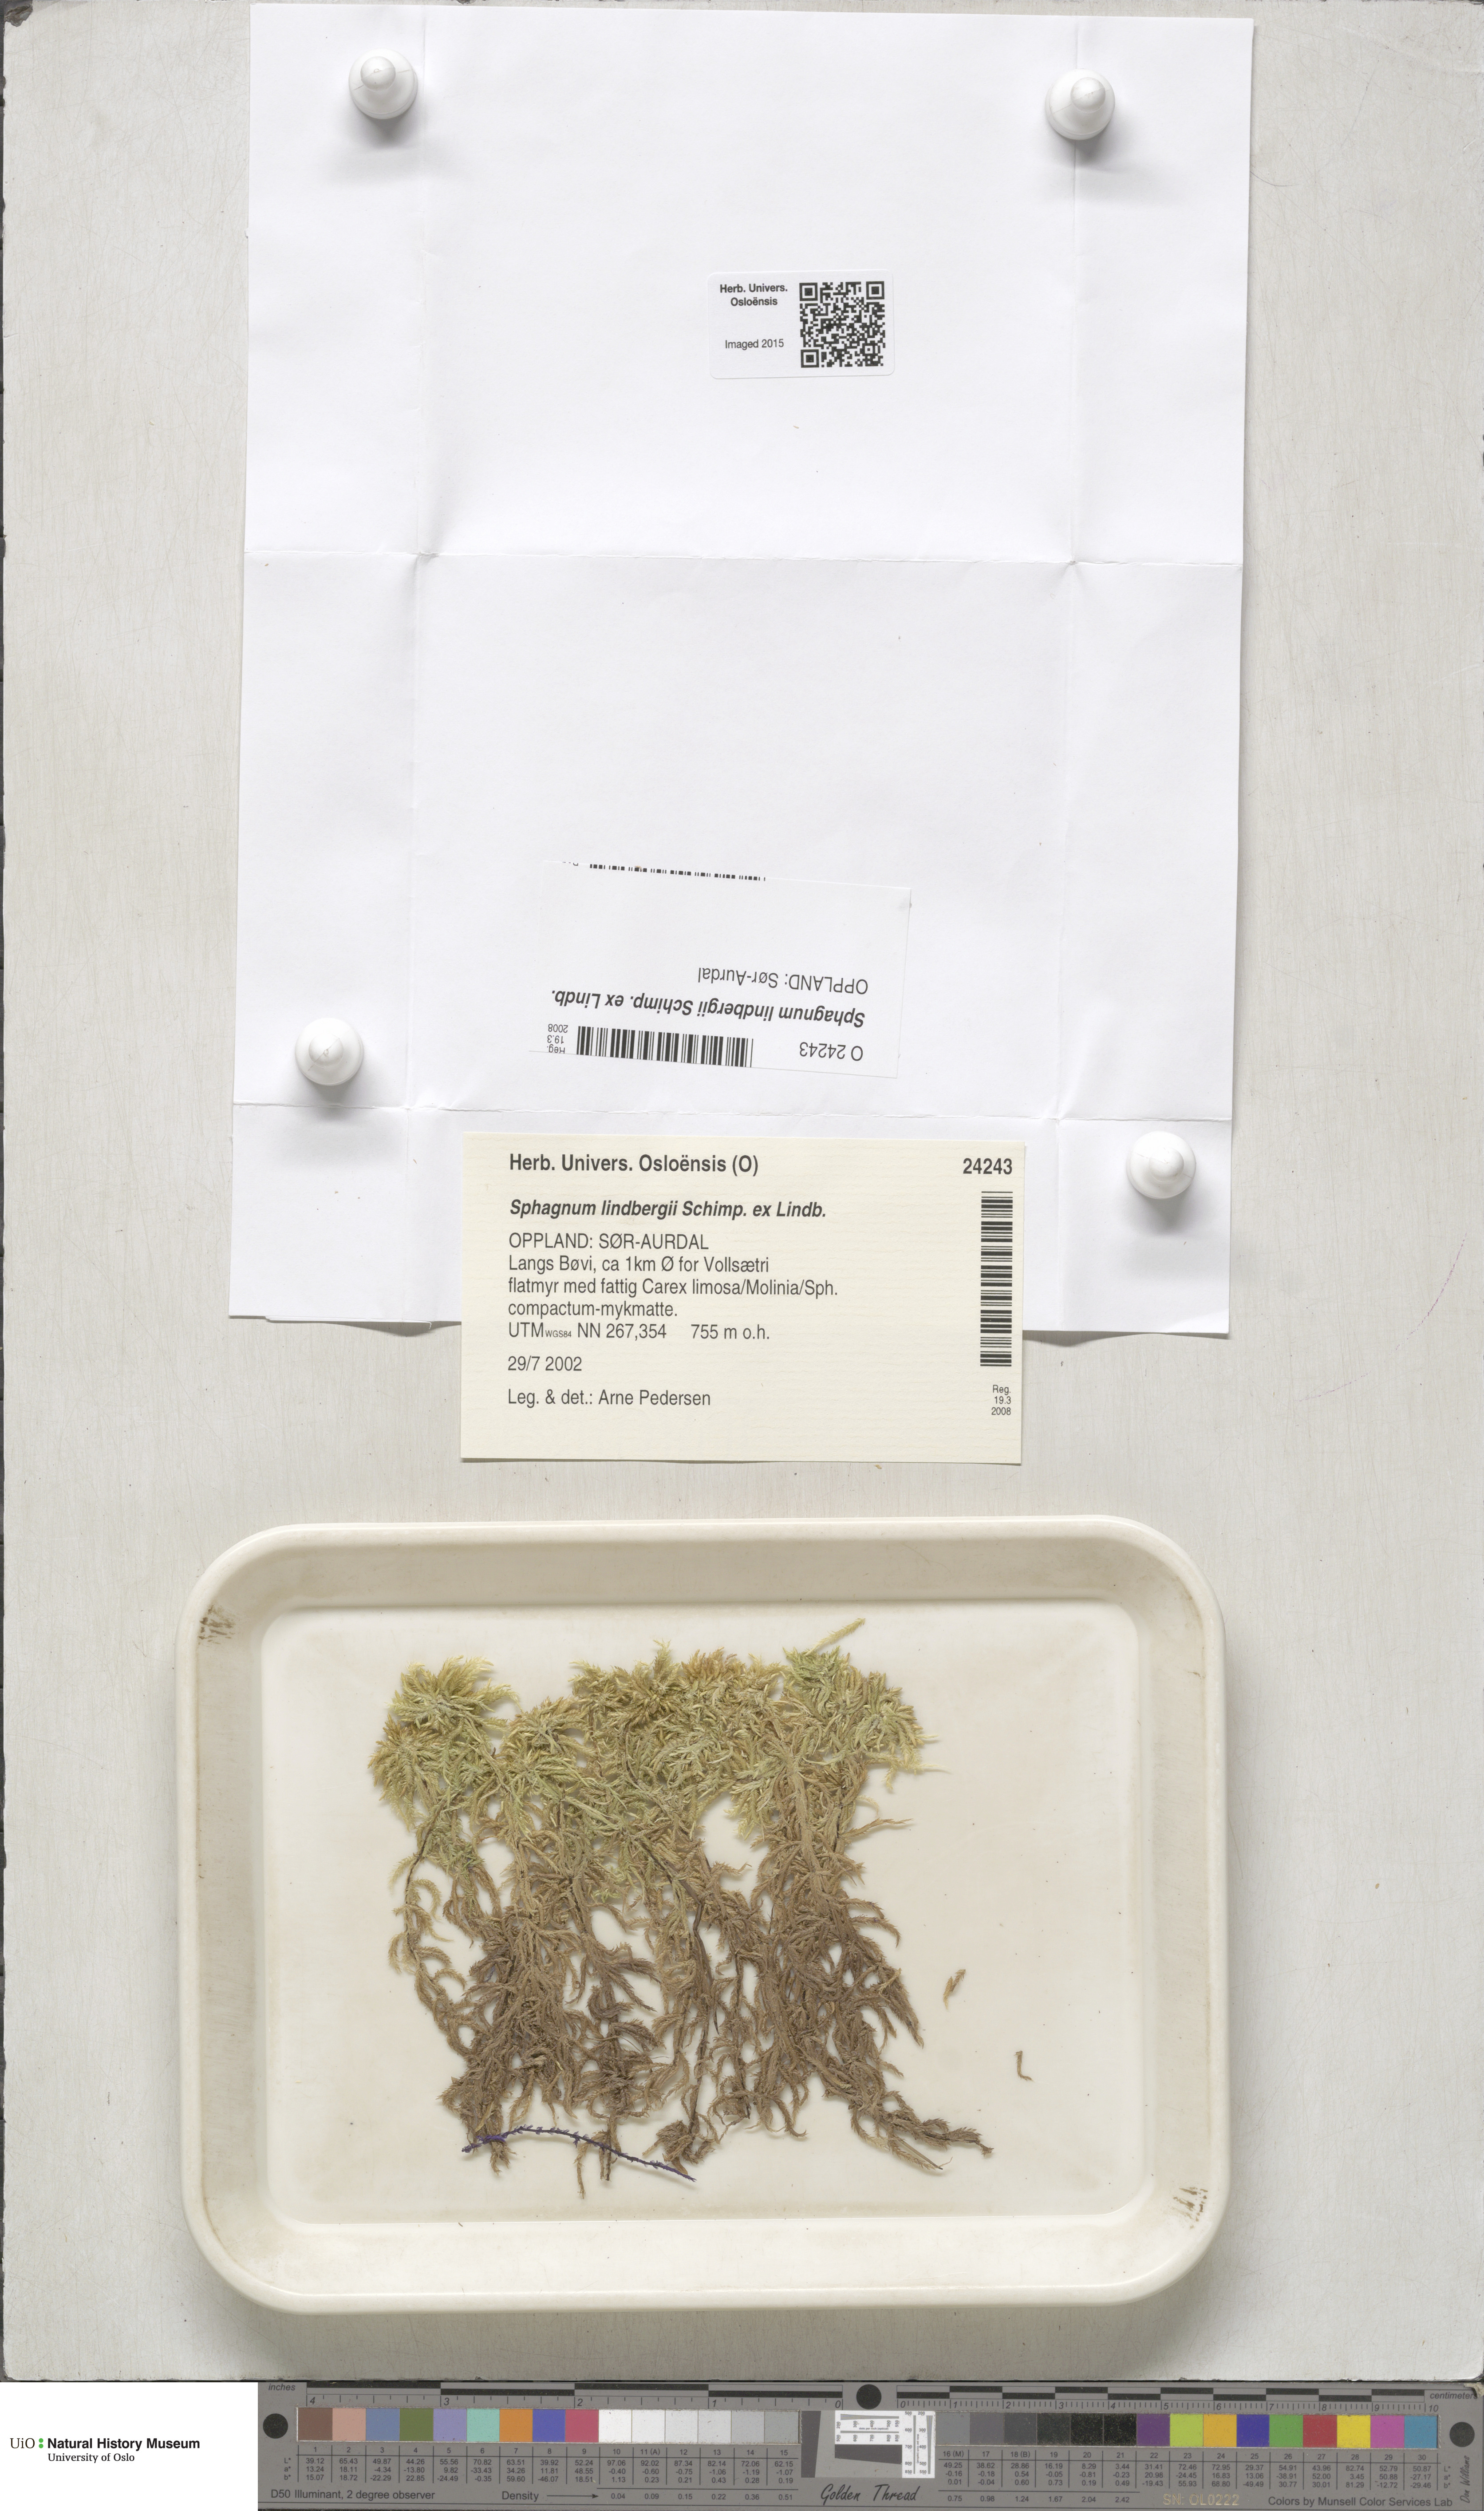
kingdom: Plantae
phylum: Bryophyta
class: Sphagnopsida
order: Sphagnales
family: Sphagnaceae
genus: Sphagnum
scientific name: Sphagnum lindbergii
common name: Lindberg's peat moss
